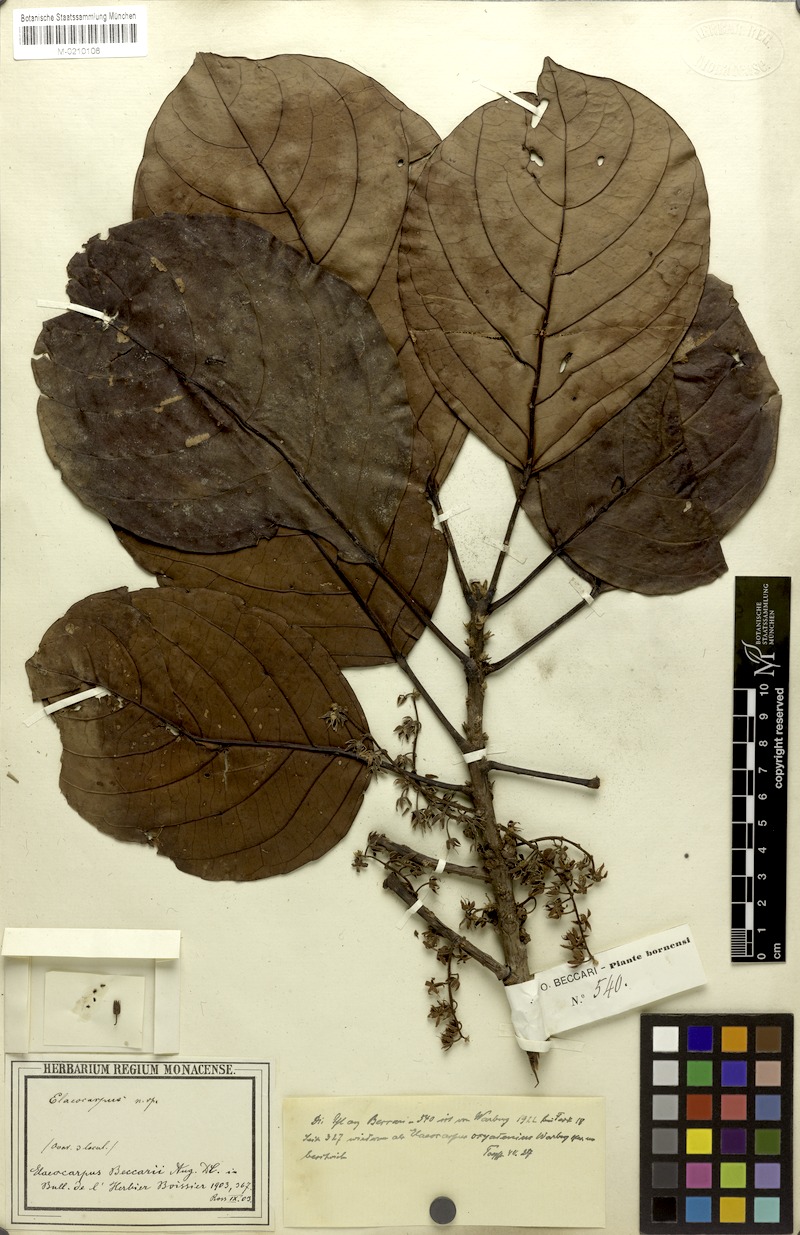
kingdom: Plantae
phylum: Tracheophyta
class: Magnoliopsida
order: Oxalidales
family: Elaeocarpaceae
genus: Elaeocarpus
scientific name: Elaeocarpus beccarii
